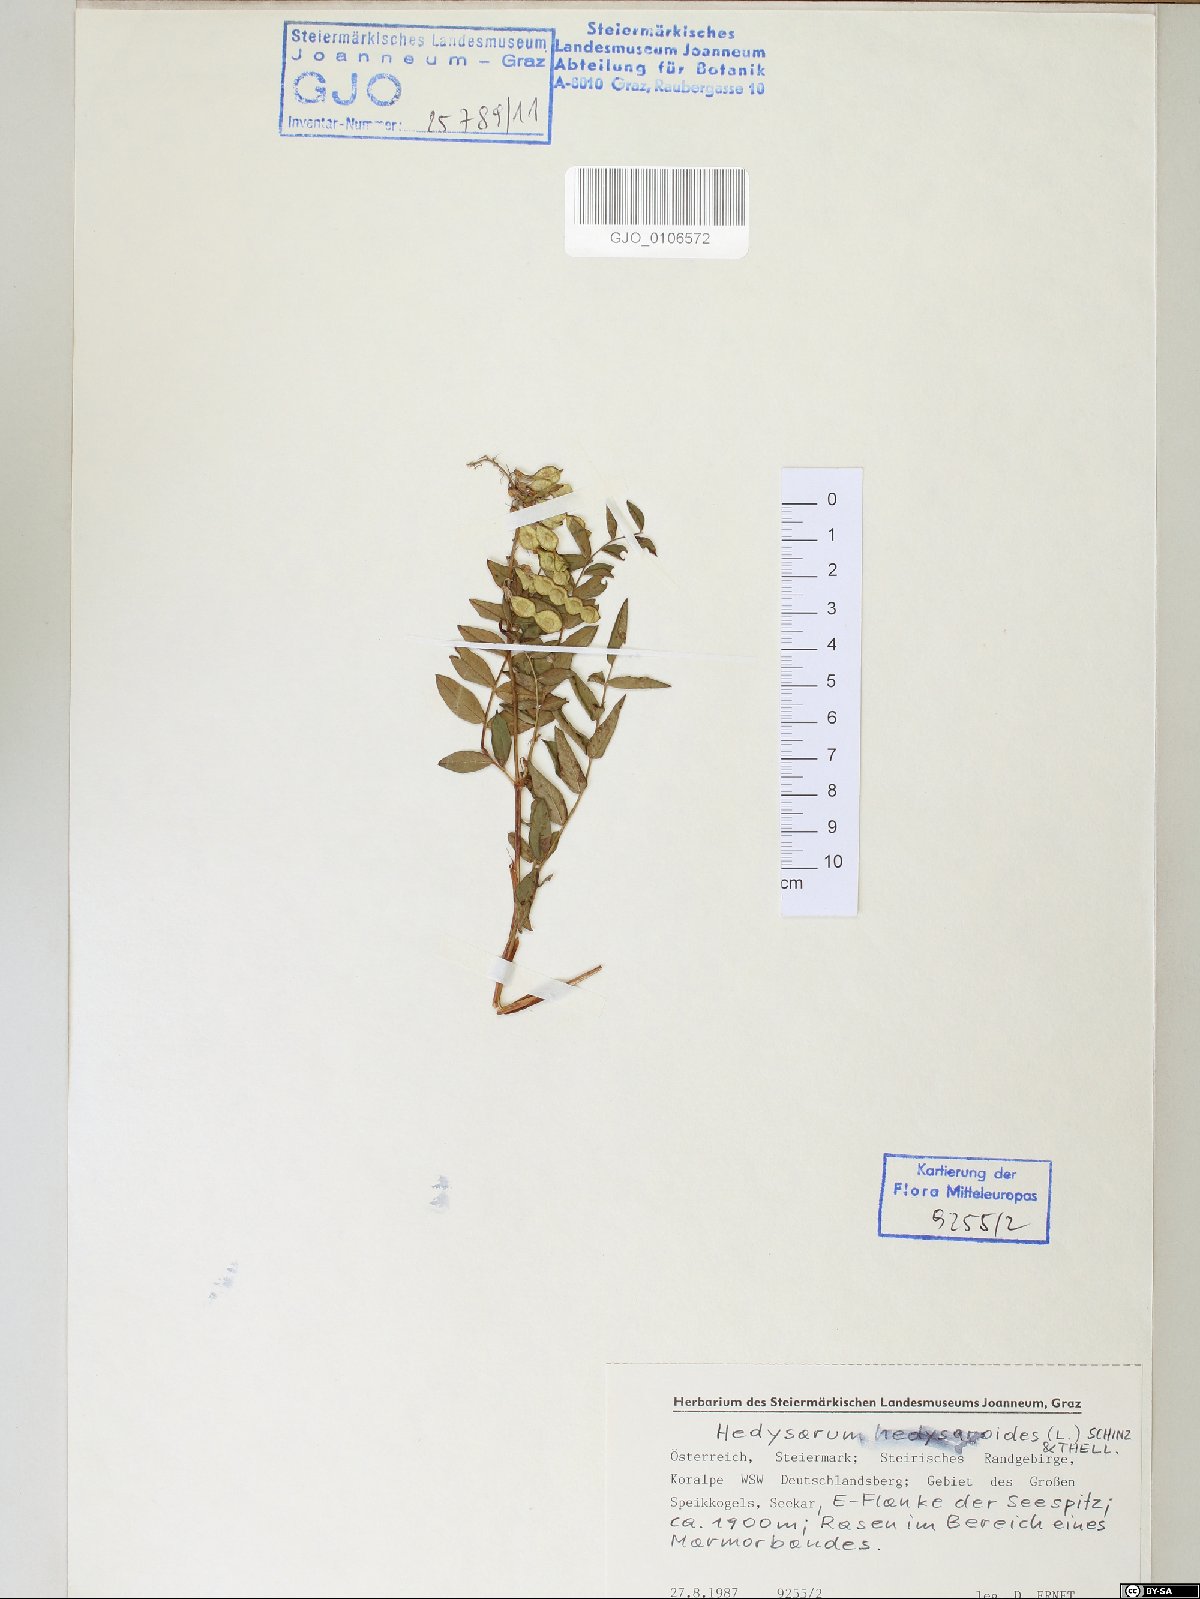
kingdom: Plantae
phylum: Tracheophyta
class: Magnoliopsida
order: Fabales
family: Fabaceae
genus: Hedysarum
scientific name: Hedysarum hedysaroides
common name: Alpine french-honeysuckle
